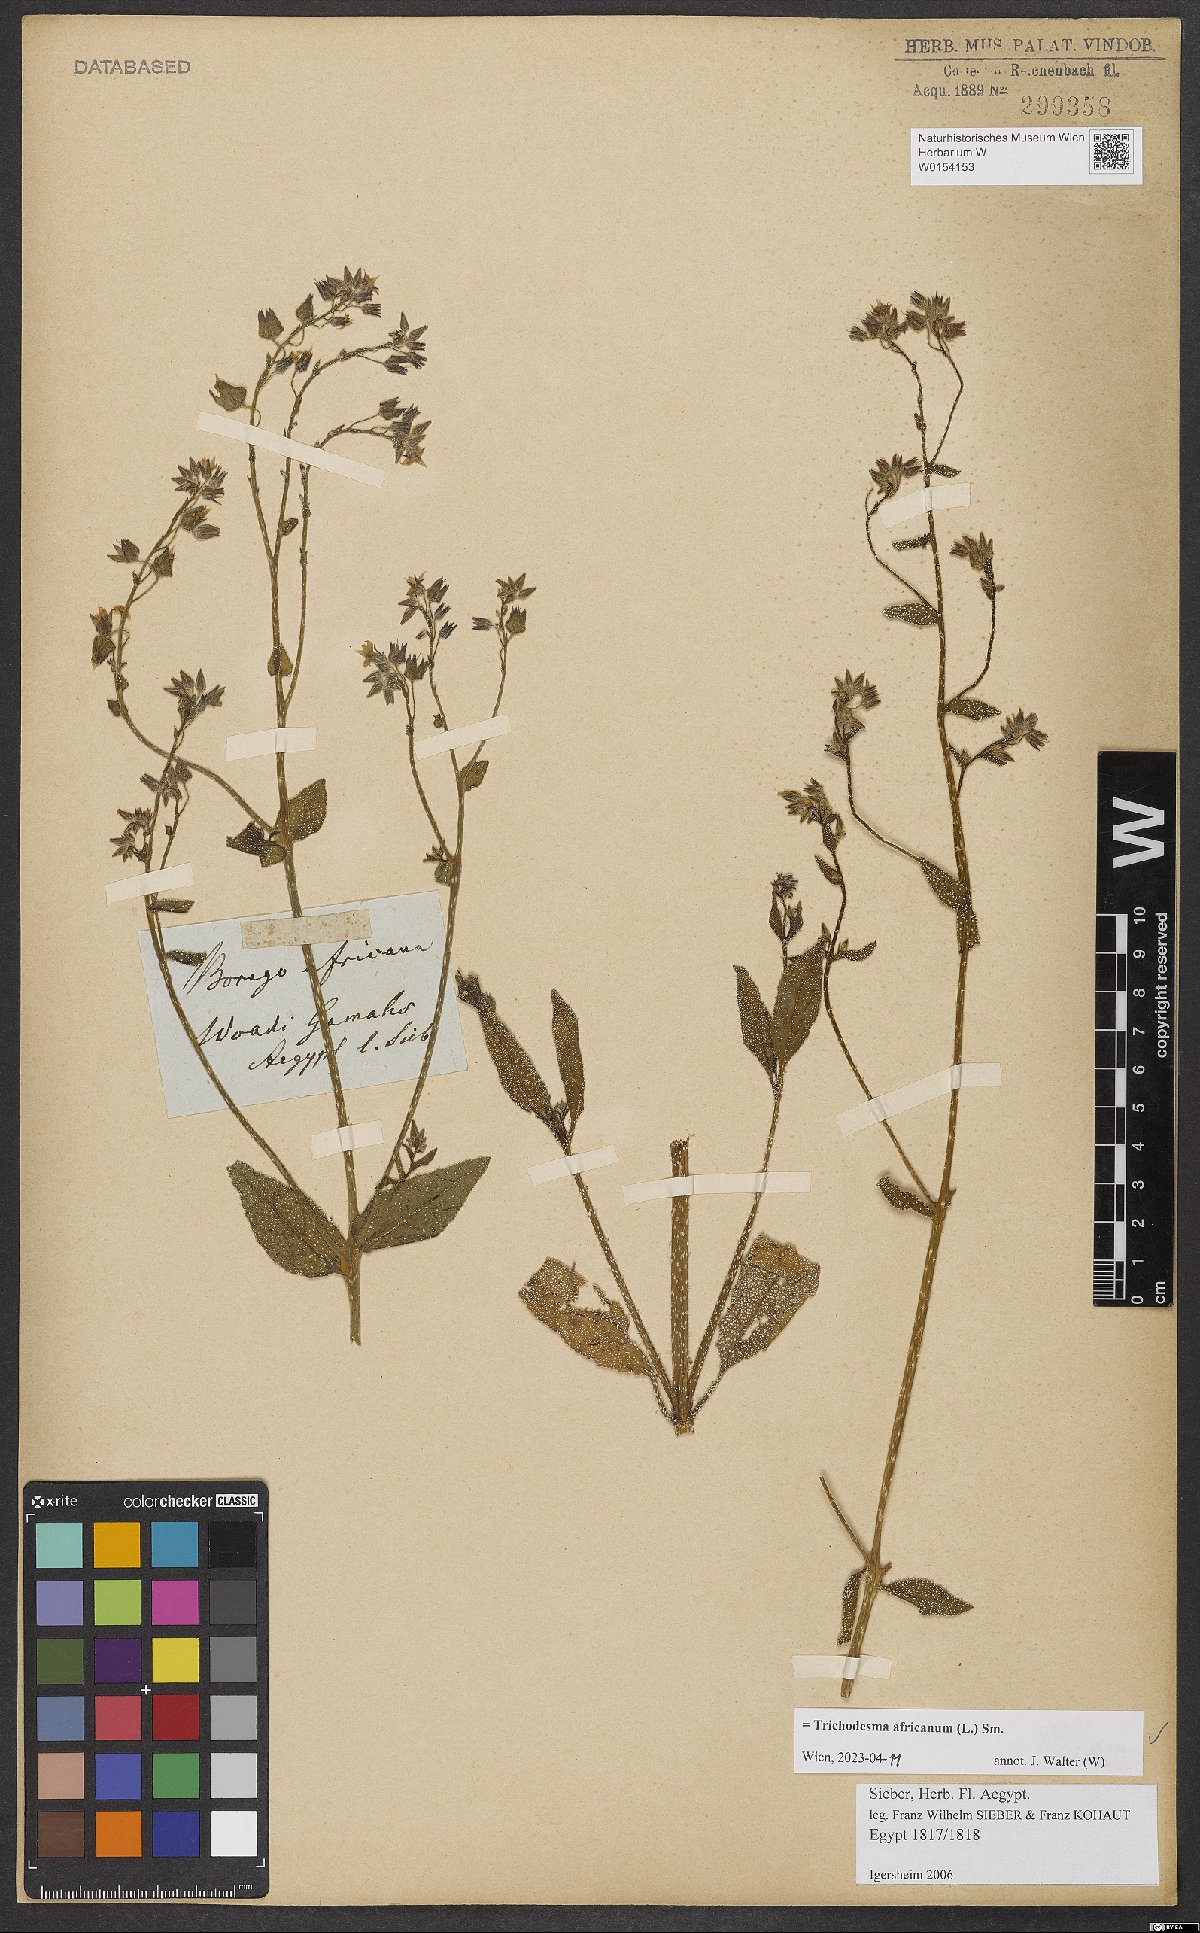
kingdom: Plantae
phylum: Tracheophyta
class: Magnoliopsida
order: Boraginales
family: Boraginaceae
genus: Trichodesma
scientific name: Trichodesma africanum
